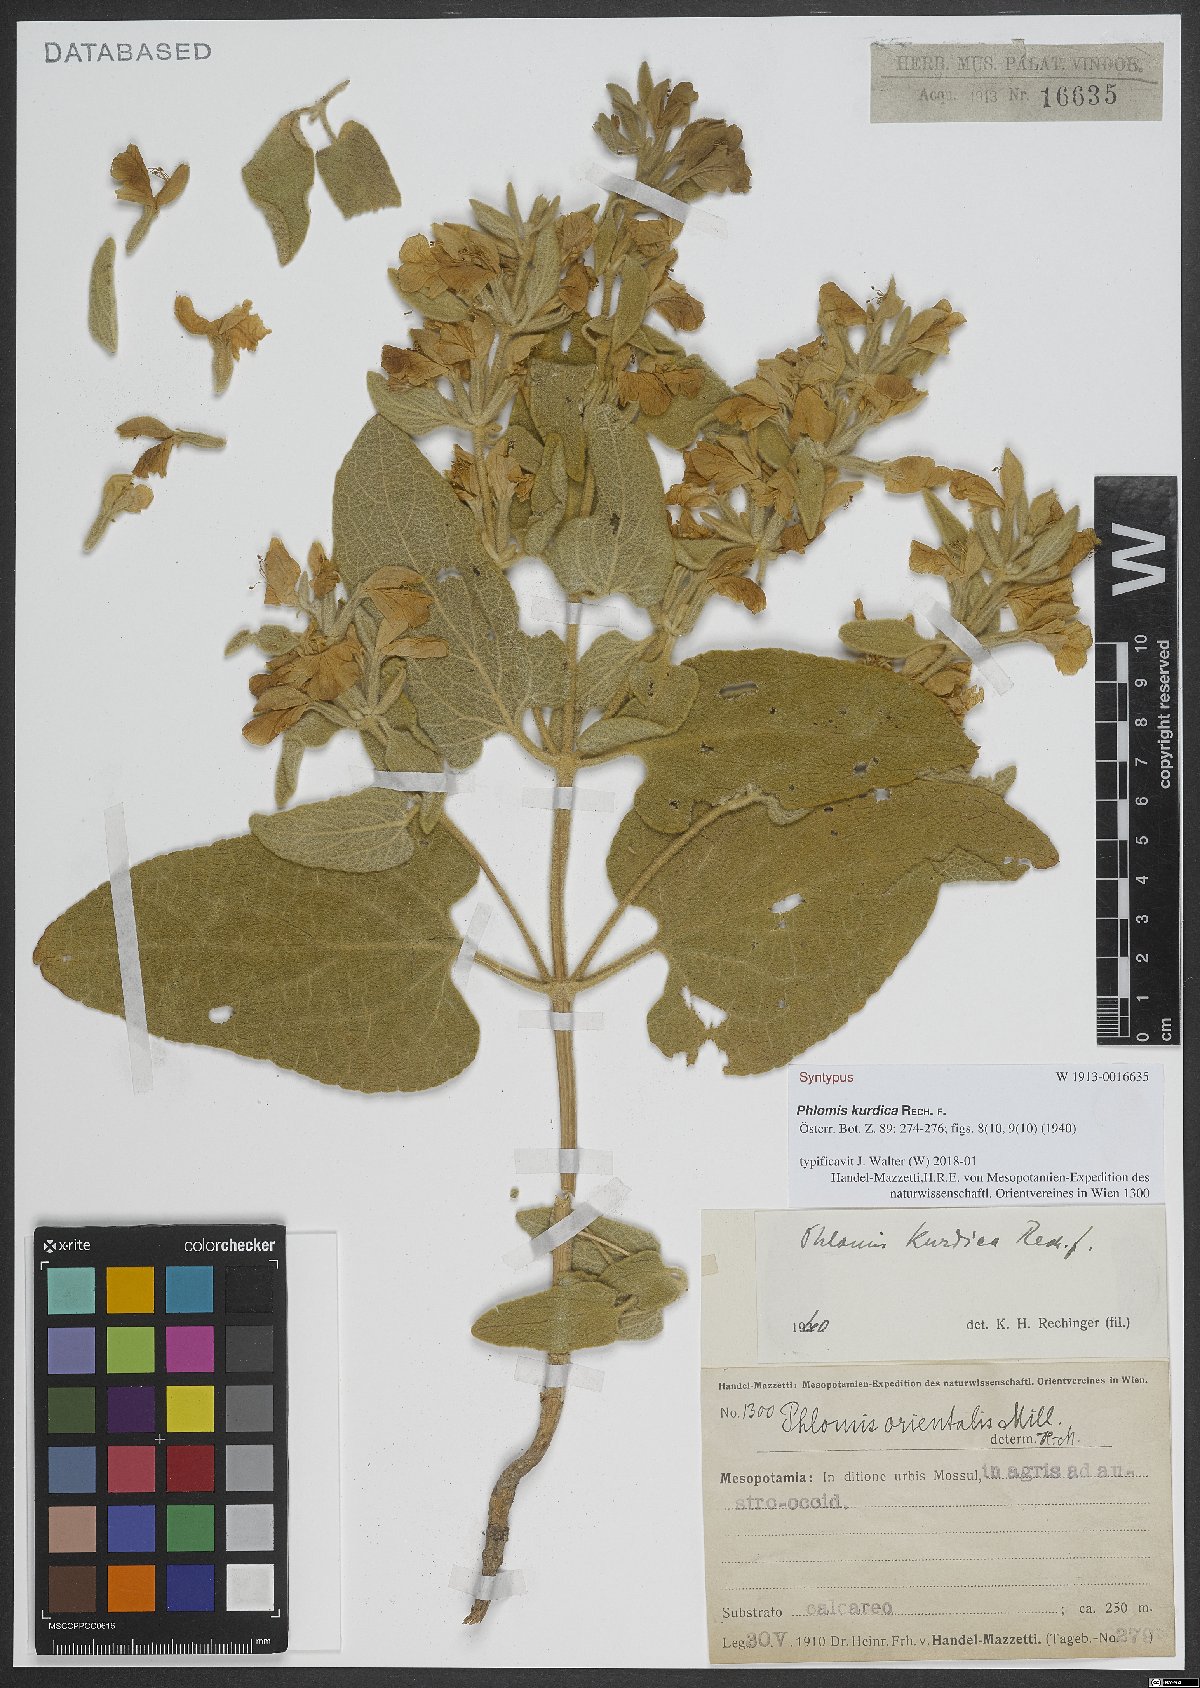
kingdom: Plantae
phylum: Tracheophyta
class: Magnoliopsida
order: Lamiales
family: Lamiaceae
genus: Phlomis
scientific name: Phlomis kurdica
